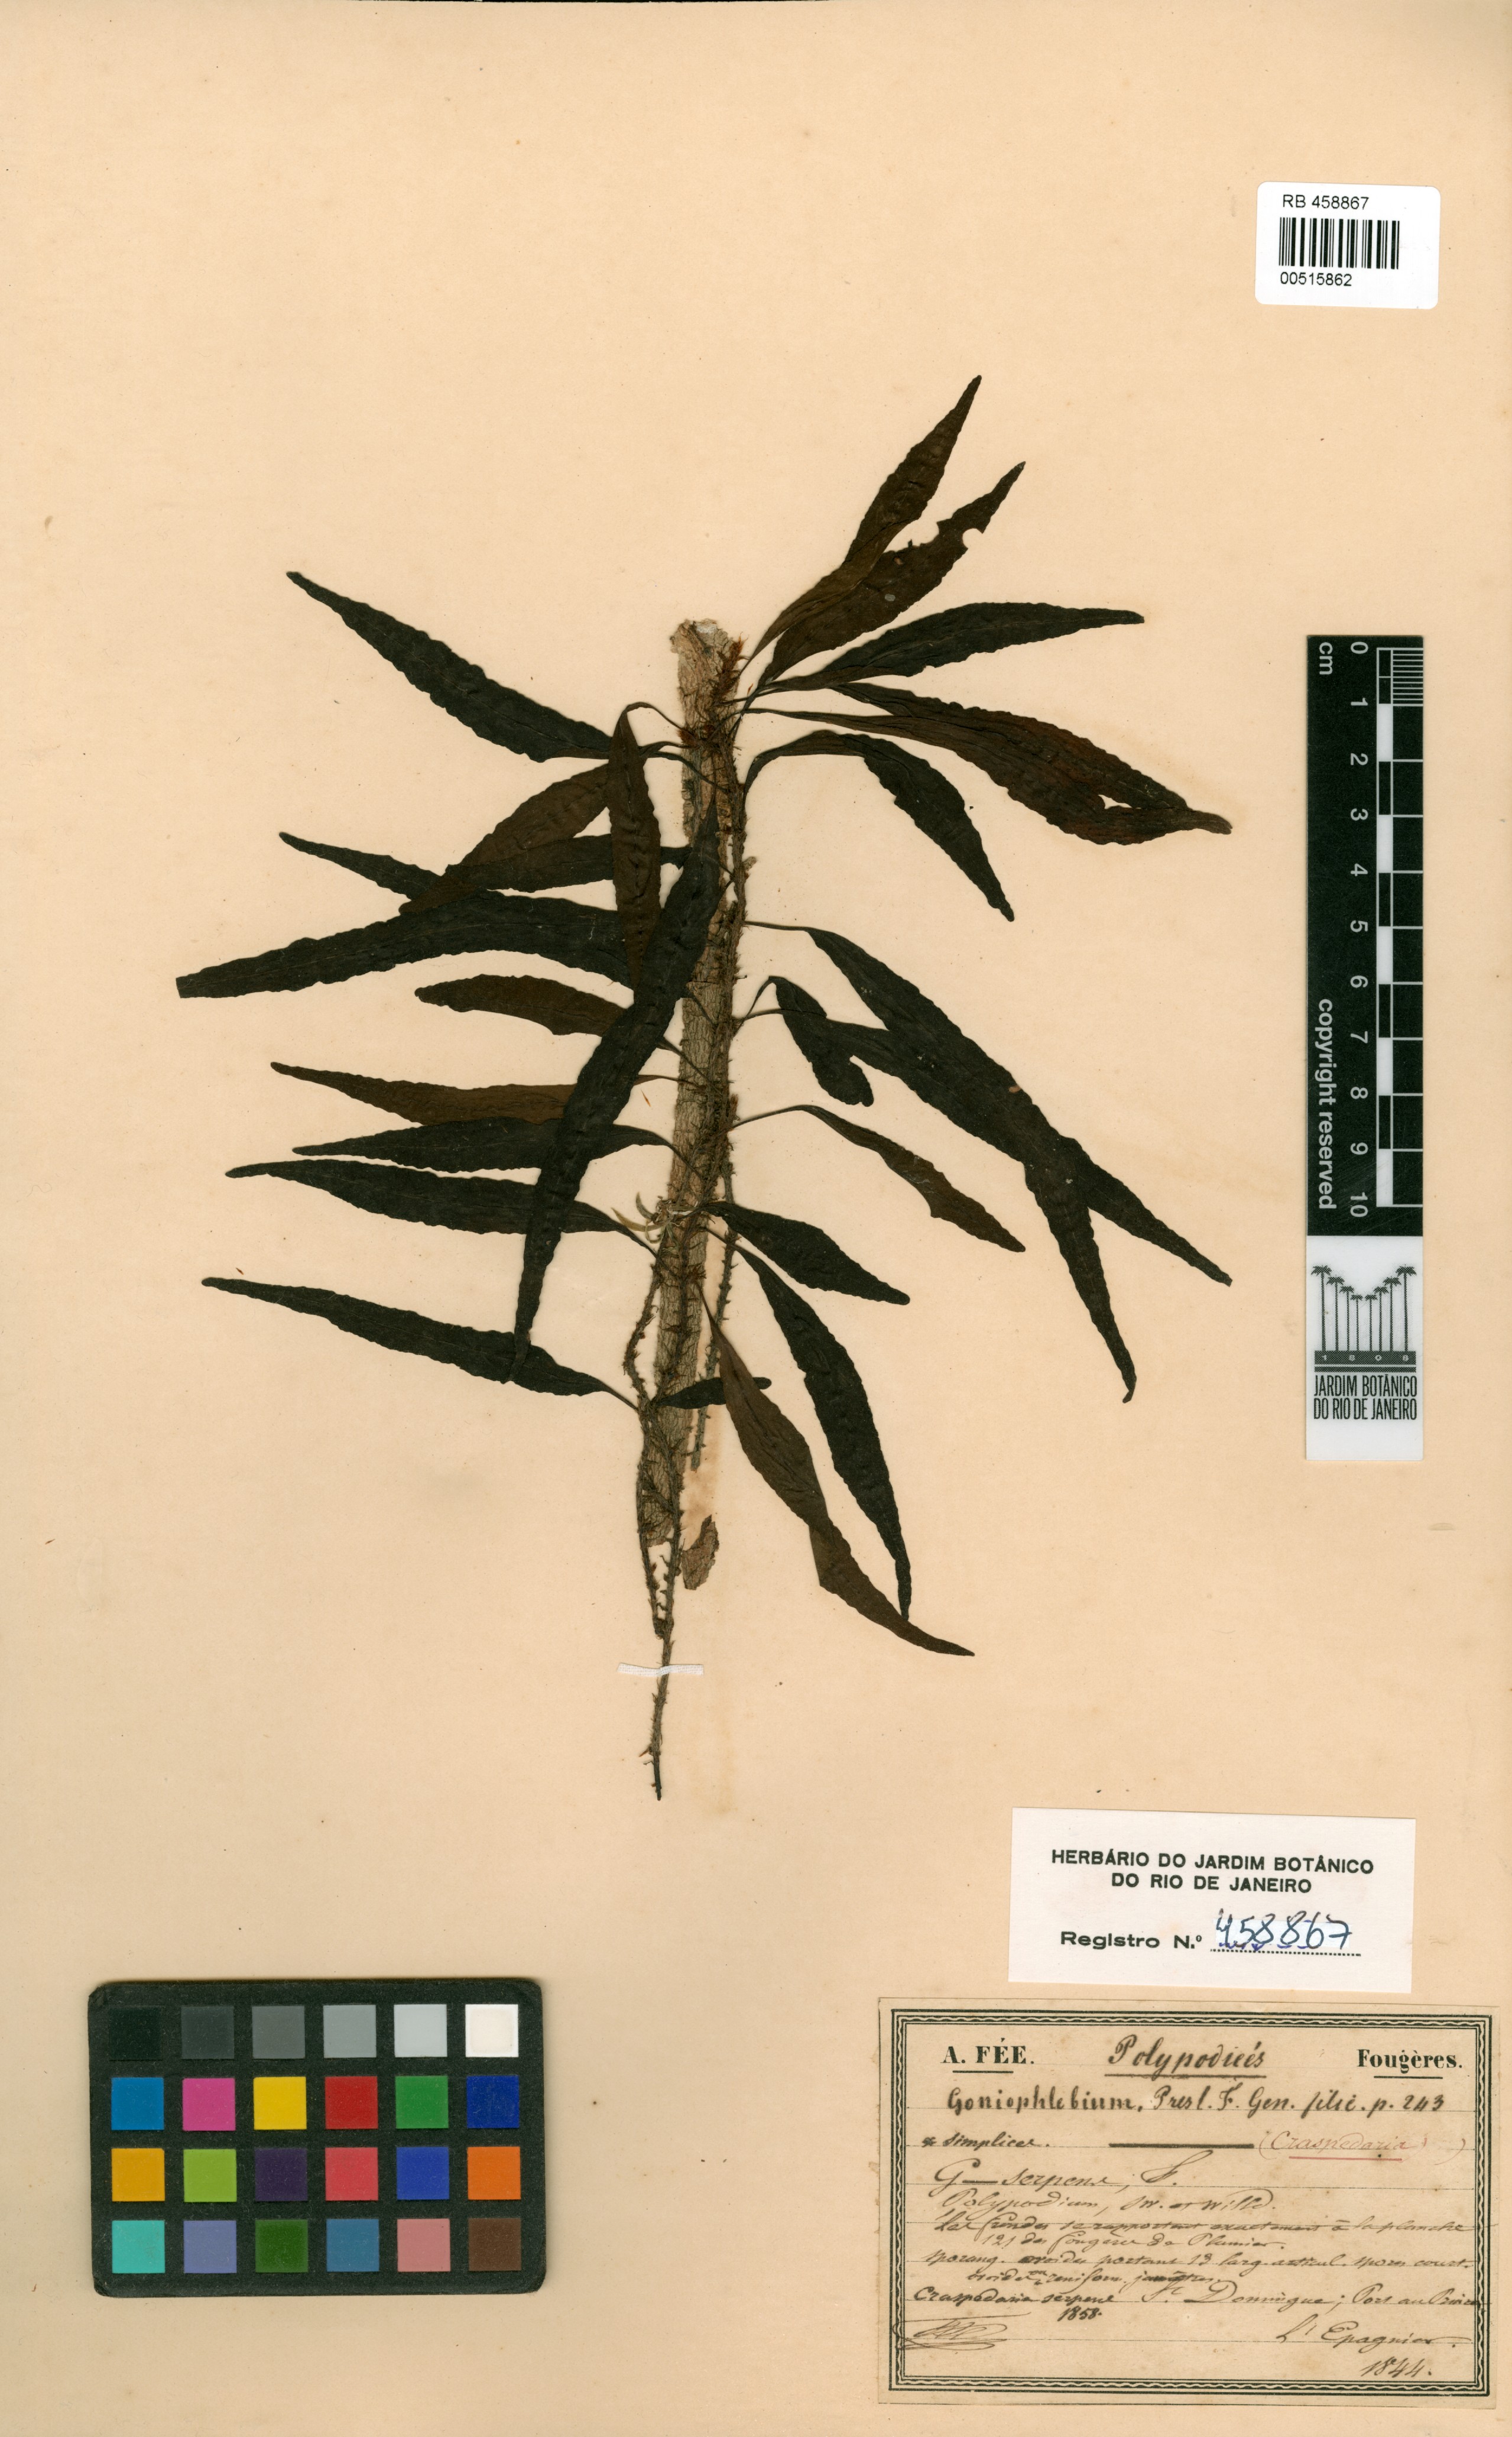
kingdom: Plantae
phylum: Tracheophyta
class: Polypodiopsida
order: Polypodiales
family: Polypodiaceae
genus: Microgramma
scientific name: Microgramma heterophylla
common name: Clinging snakefern
